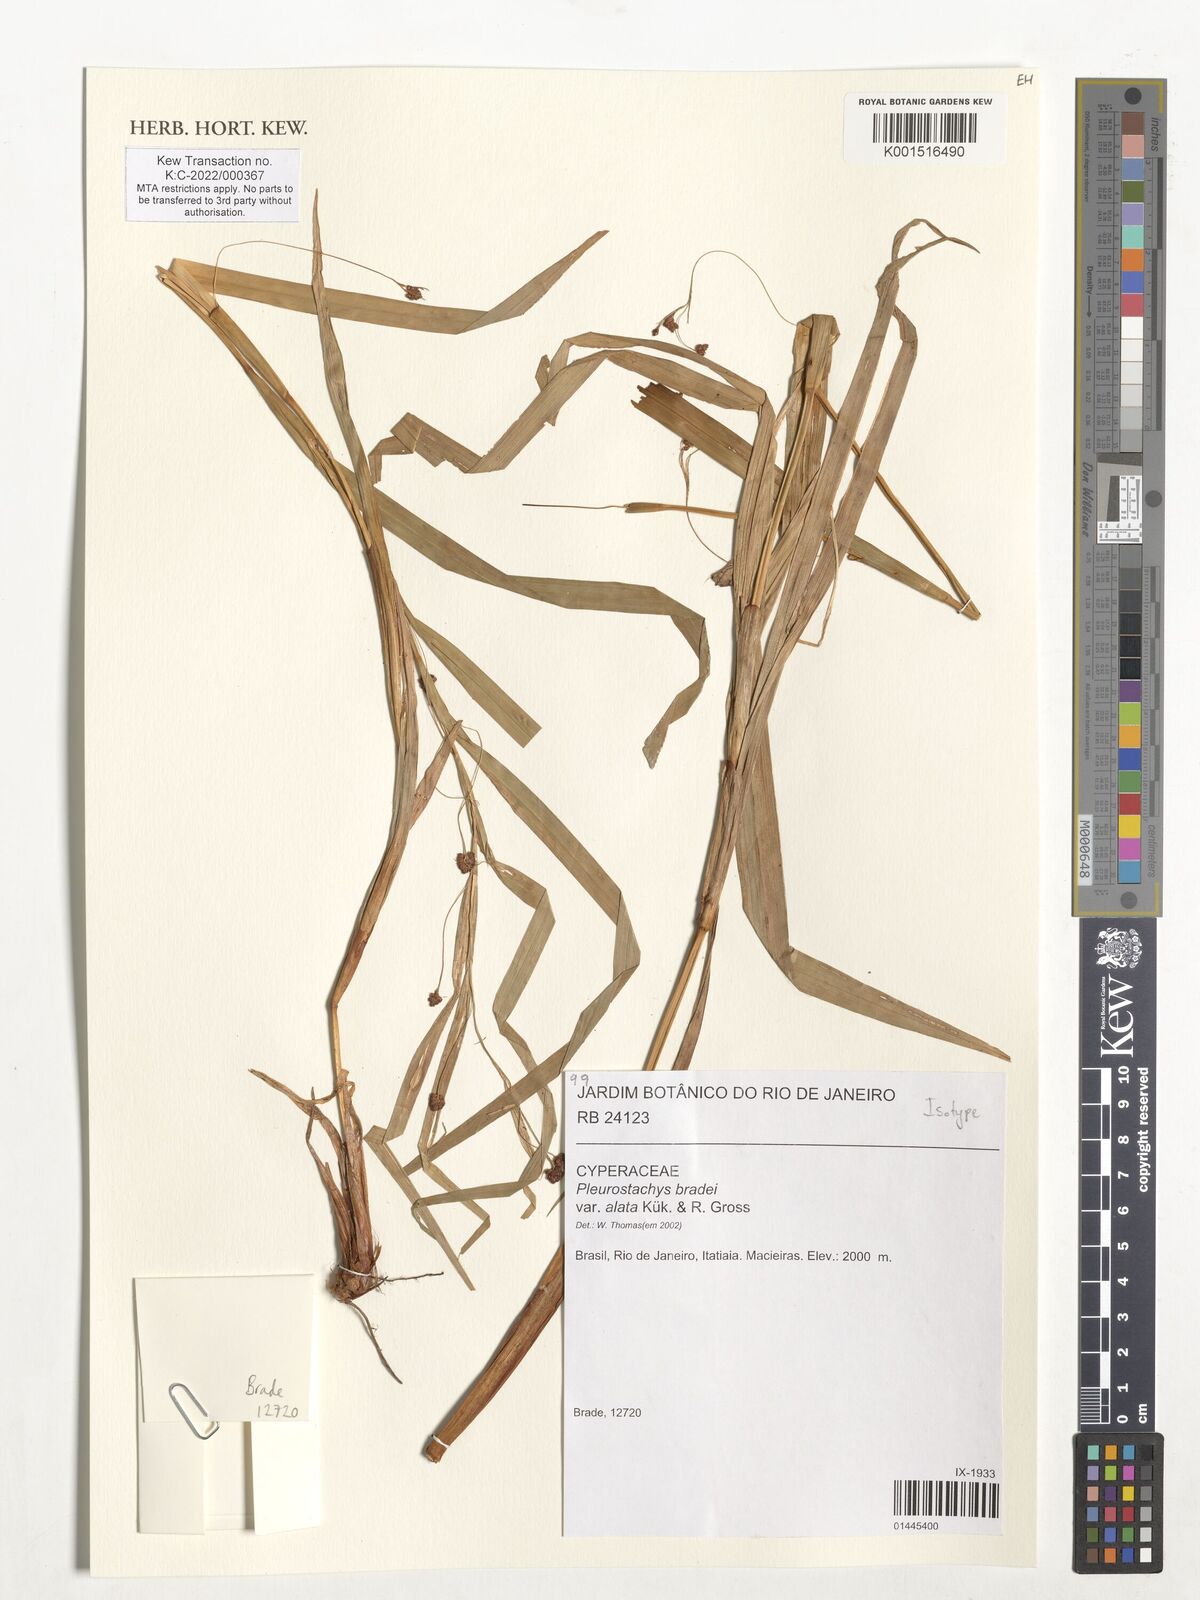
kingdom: Plantae
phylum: Tracheophyta
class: Liliopsida
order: Poales
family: Cyperaceae
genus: Rhynchospora
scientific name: Rhynchospora bradei
